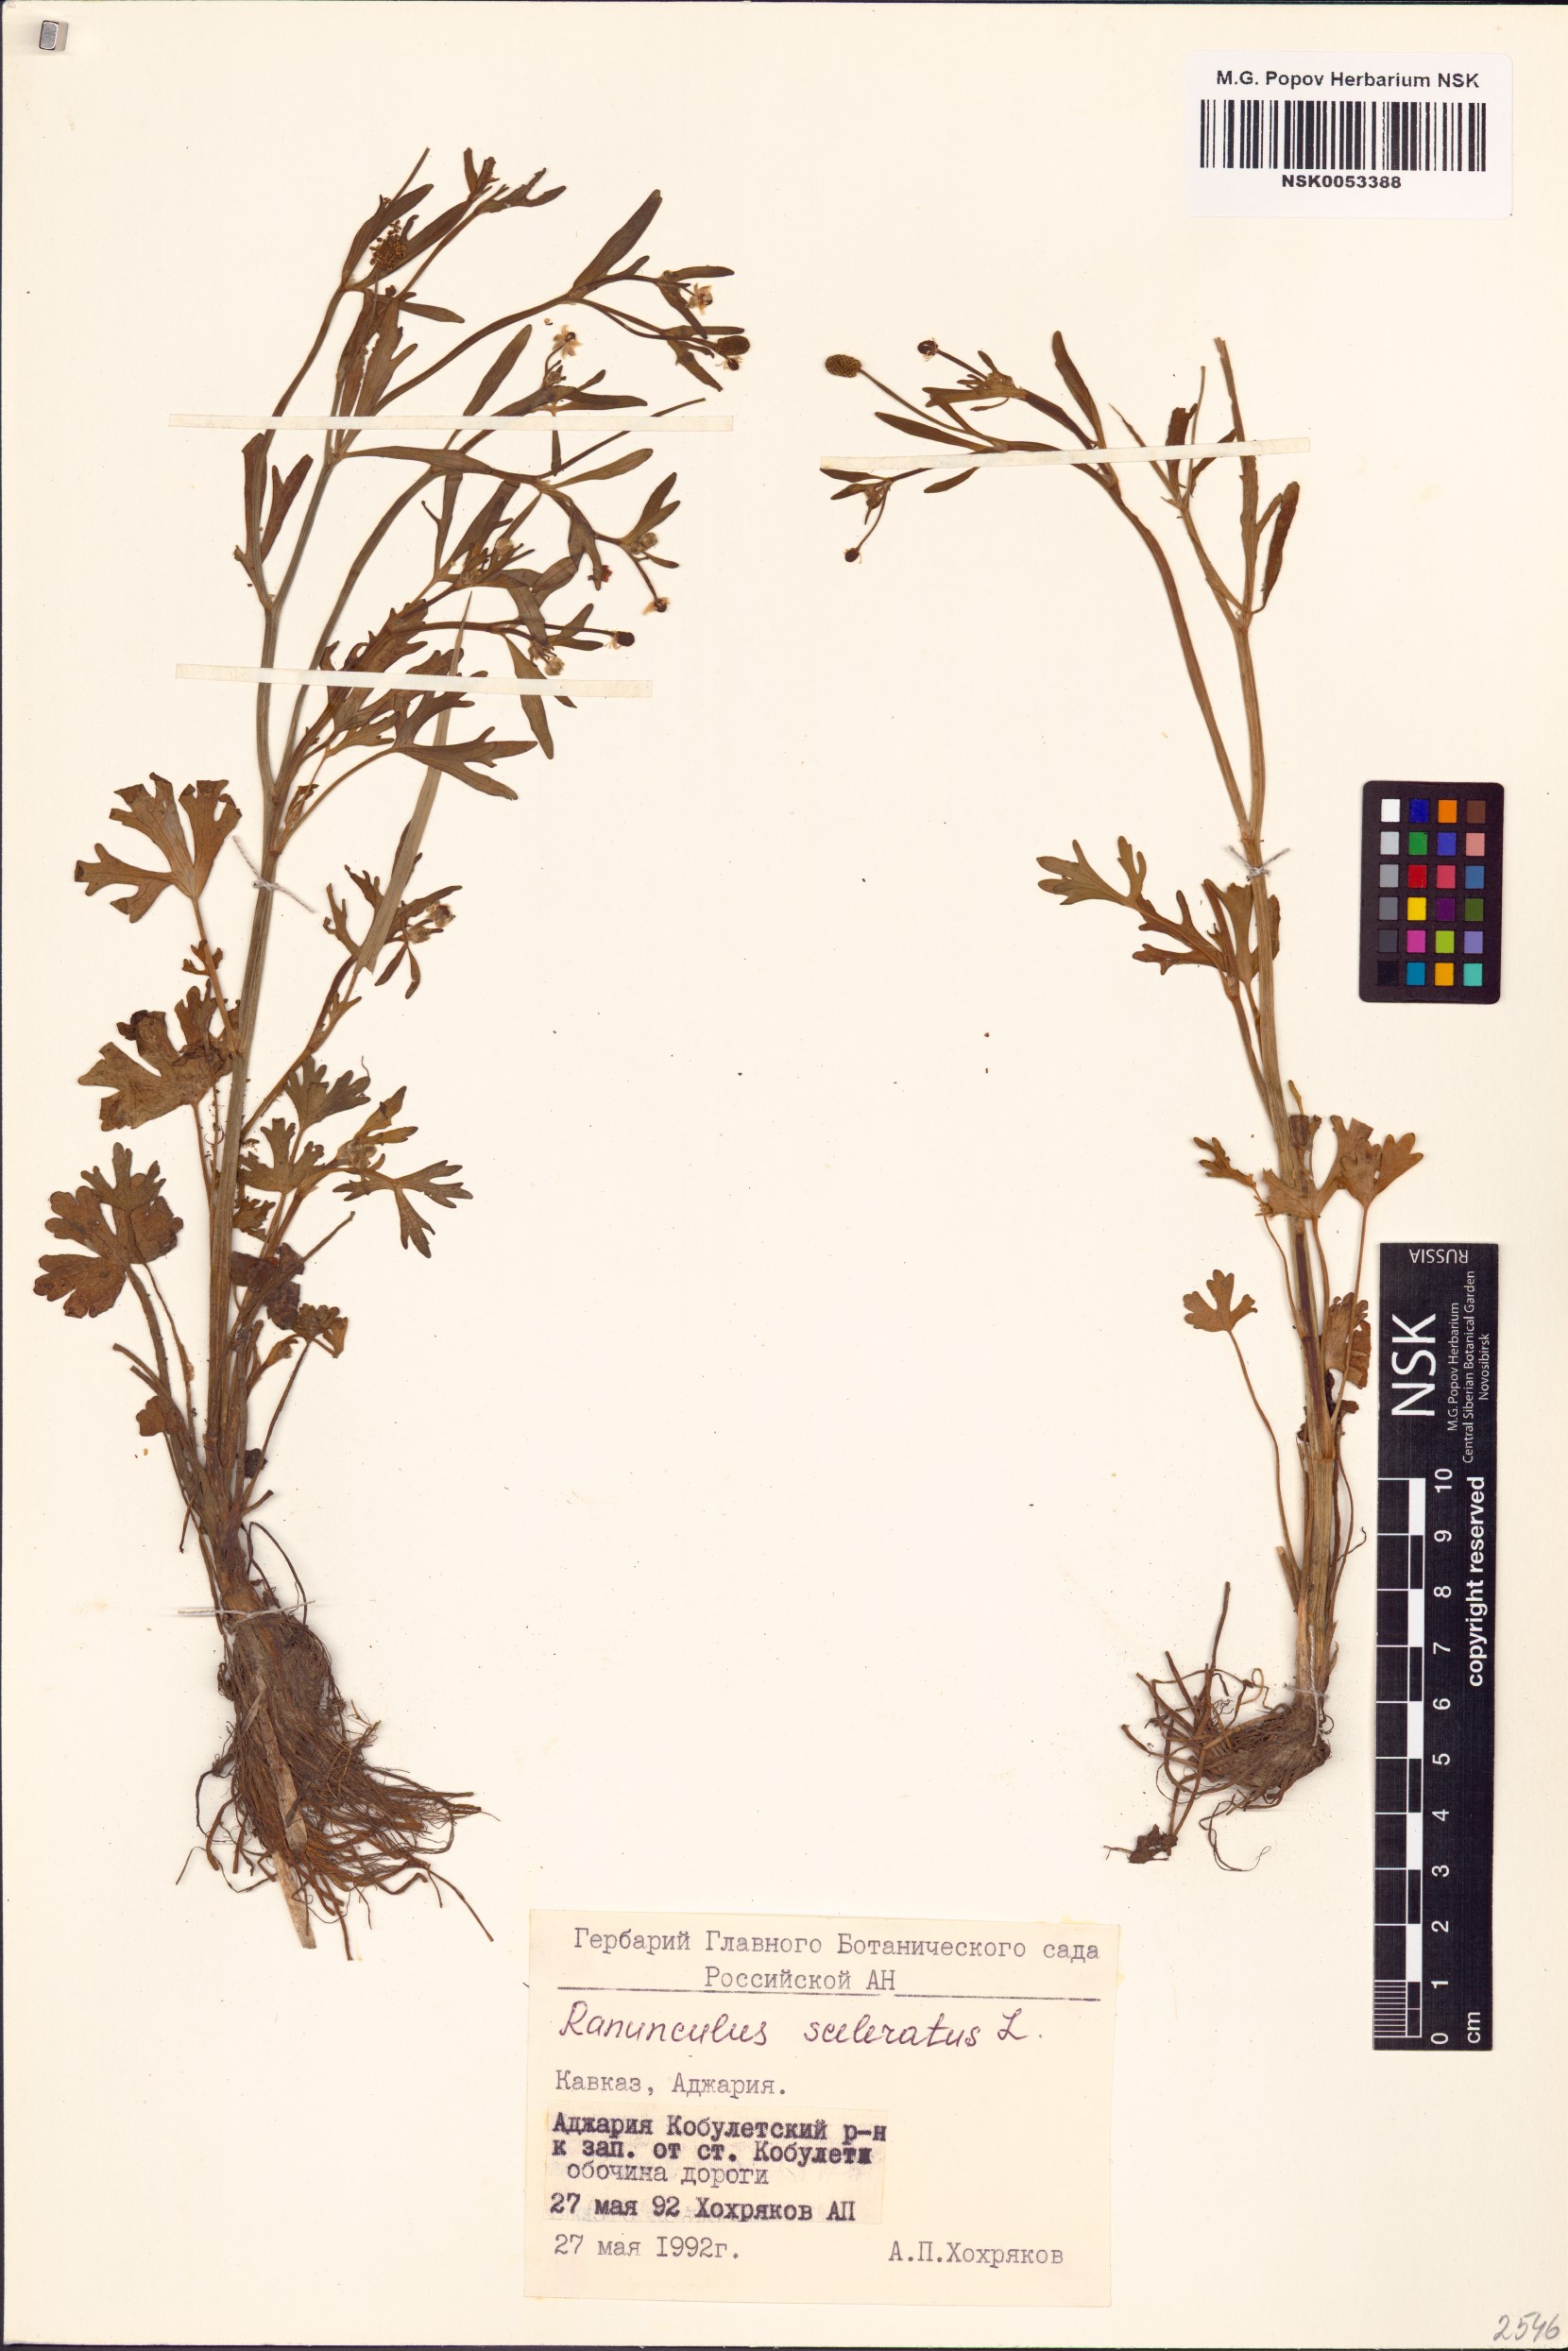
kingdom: Plantae
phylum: Tracheophyta
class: Magnoliopsida
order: Ranunculales
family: Ranunculaceae
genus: Ranunculus
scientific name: Ranunculus sceleratus
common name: Celery-leaved buttercup
